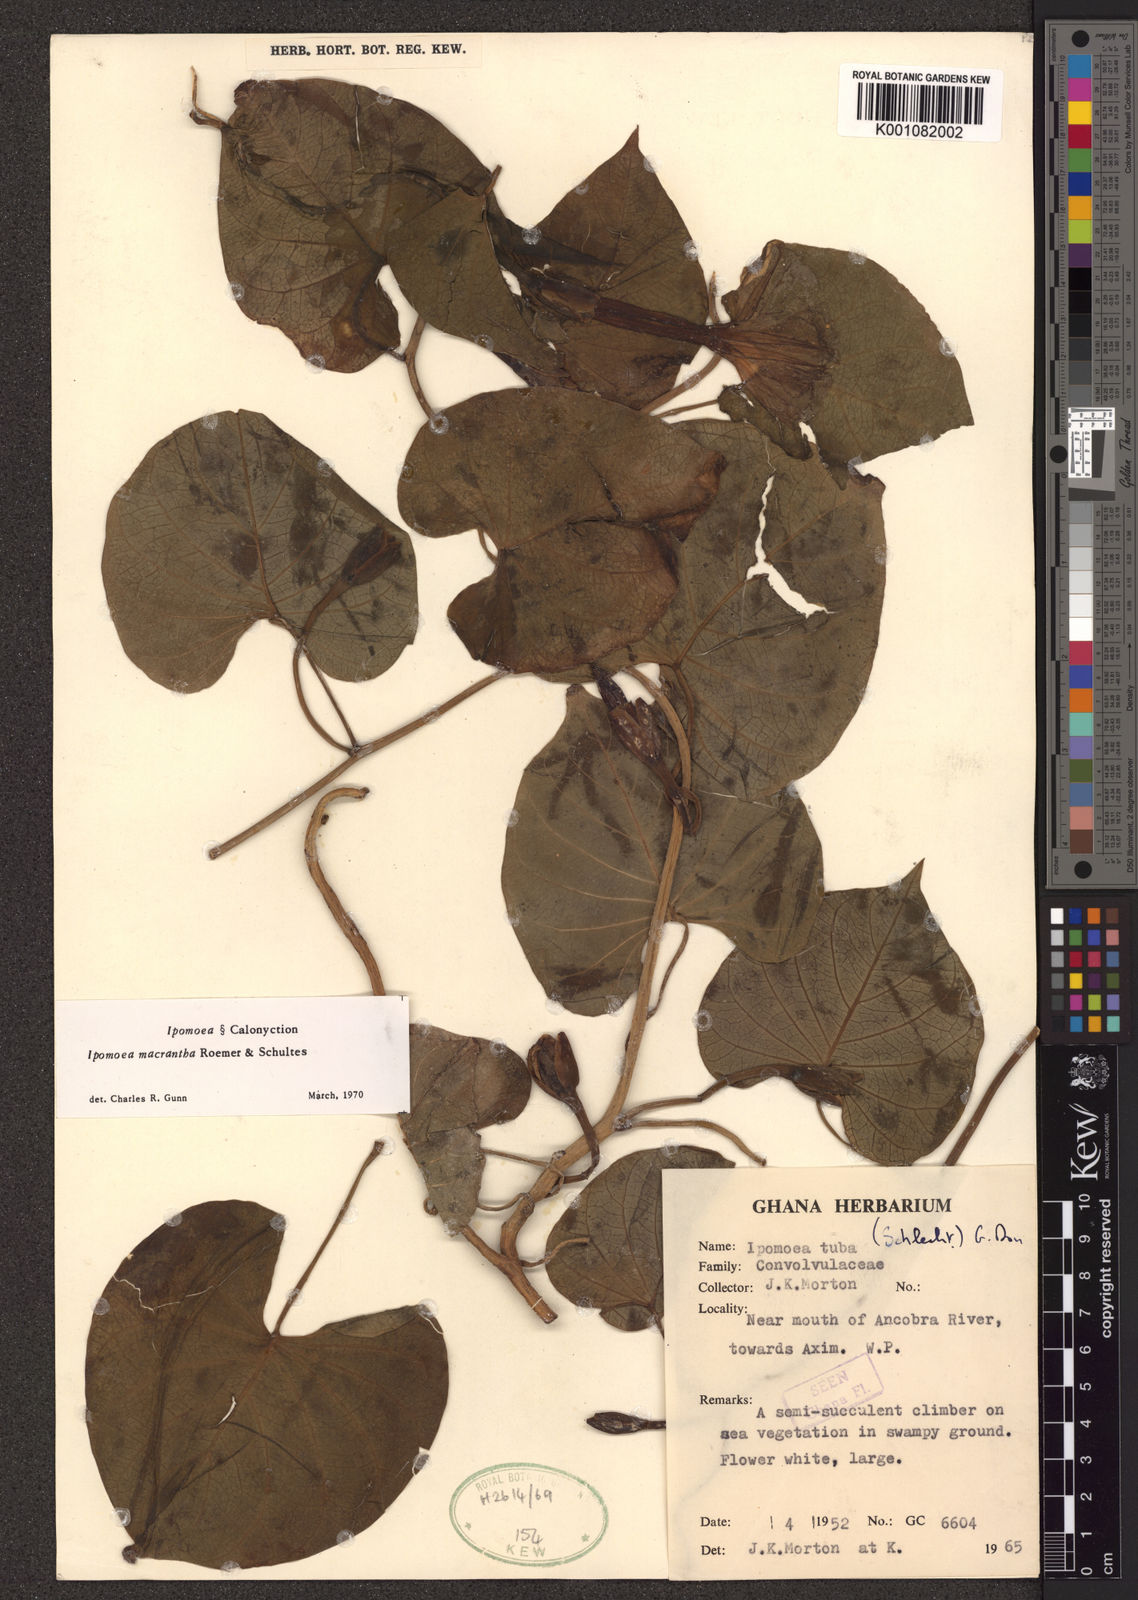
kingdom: Plantae
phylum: Tracheophyta
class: Magnoliopsida
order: Solanales
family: Convolvulaceae
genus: Ipomoea
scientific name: Ipomoea violacea
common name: Beach moonflower
